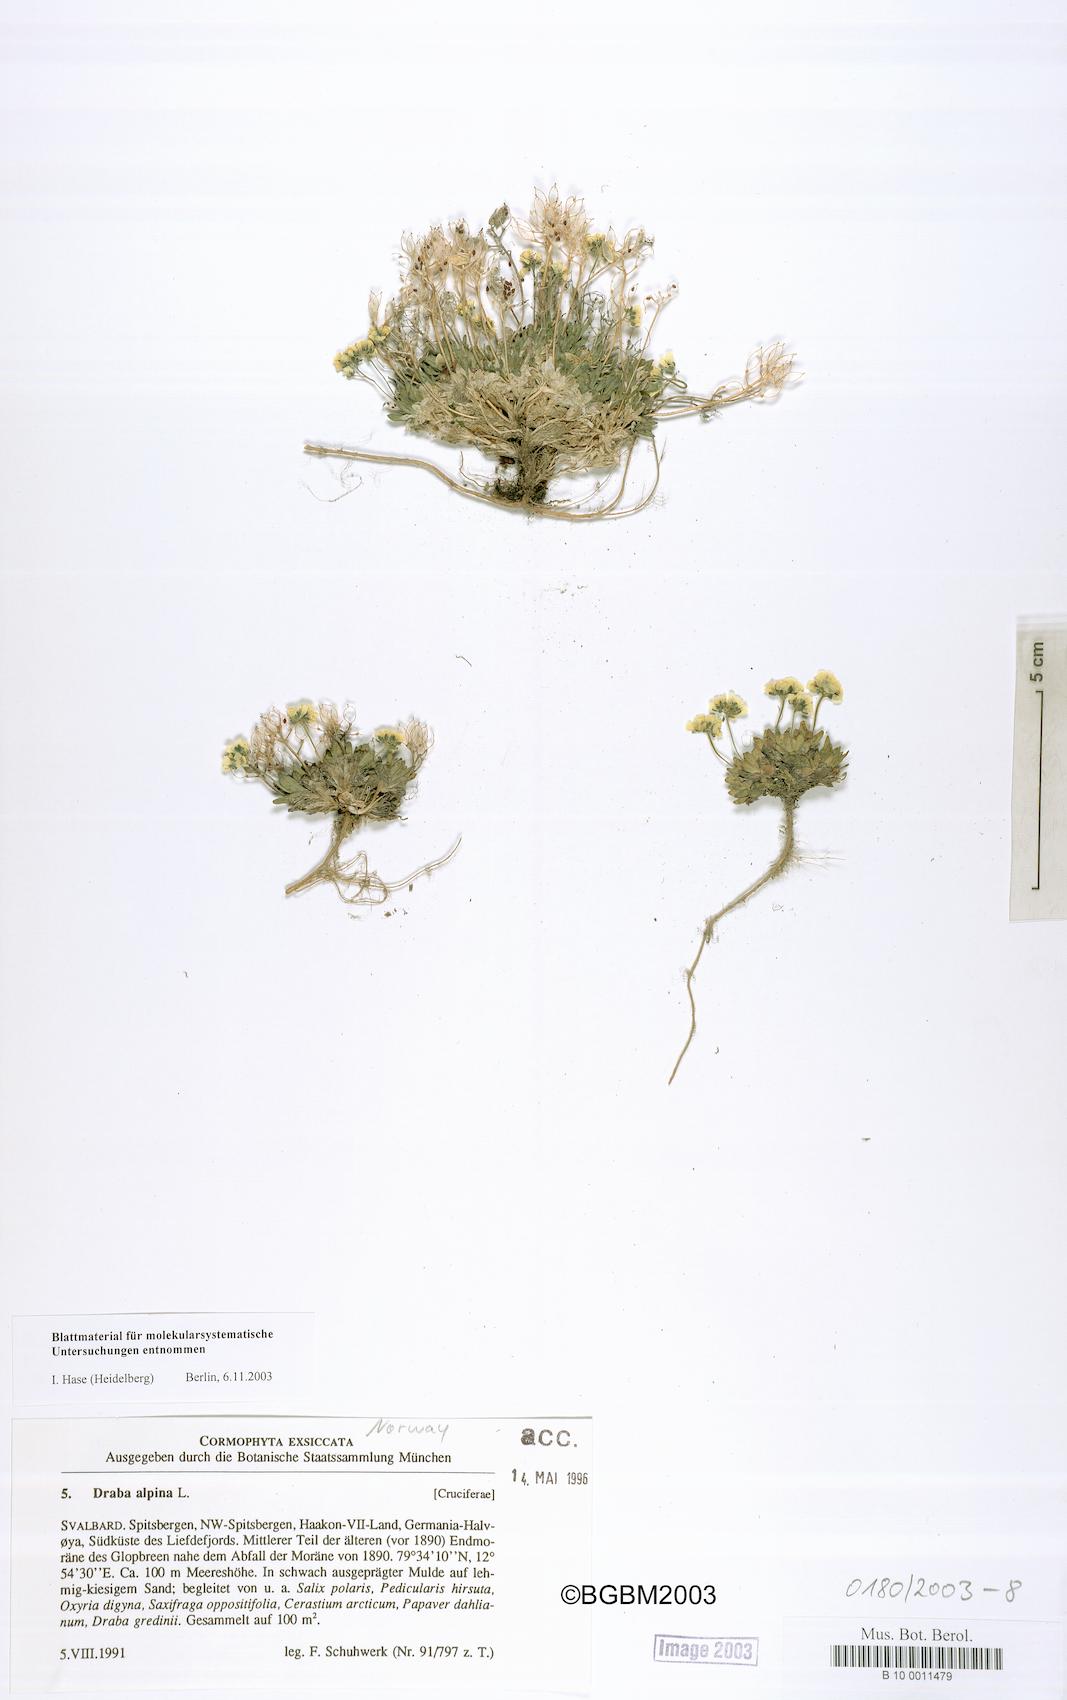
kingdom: Plantae
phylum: Tracheophyta
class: Magnoliopsida
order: Brassicales
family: Brassicaceae
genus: Draba
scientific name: Draba alpina
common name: Alpine draba
